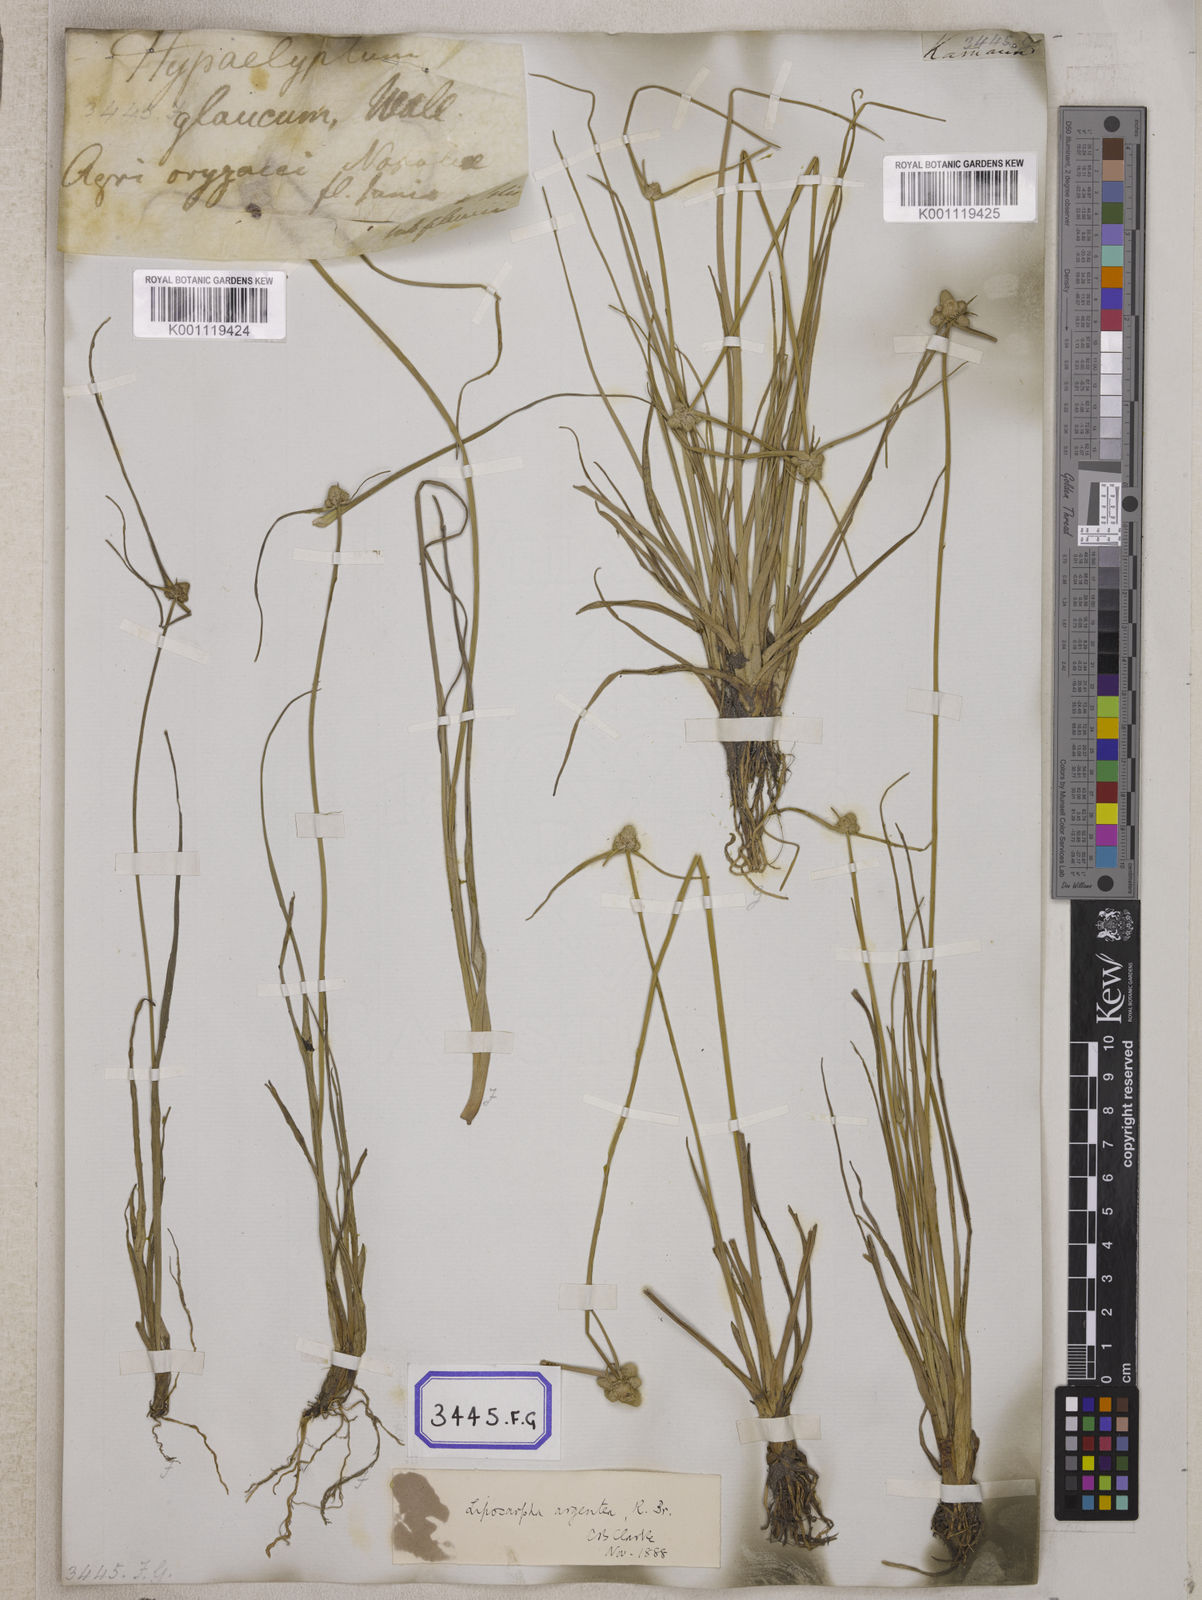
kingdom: Plantae
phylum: Tracheophyta
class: Liliopsida
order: Poales
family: Cyperaceae
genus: Cyperus
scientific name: Cyperus
